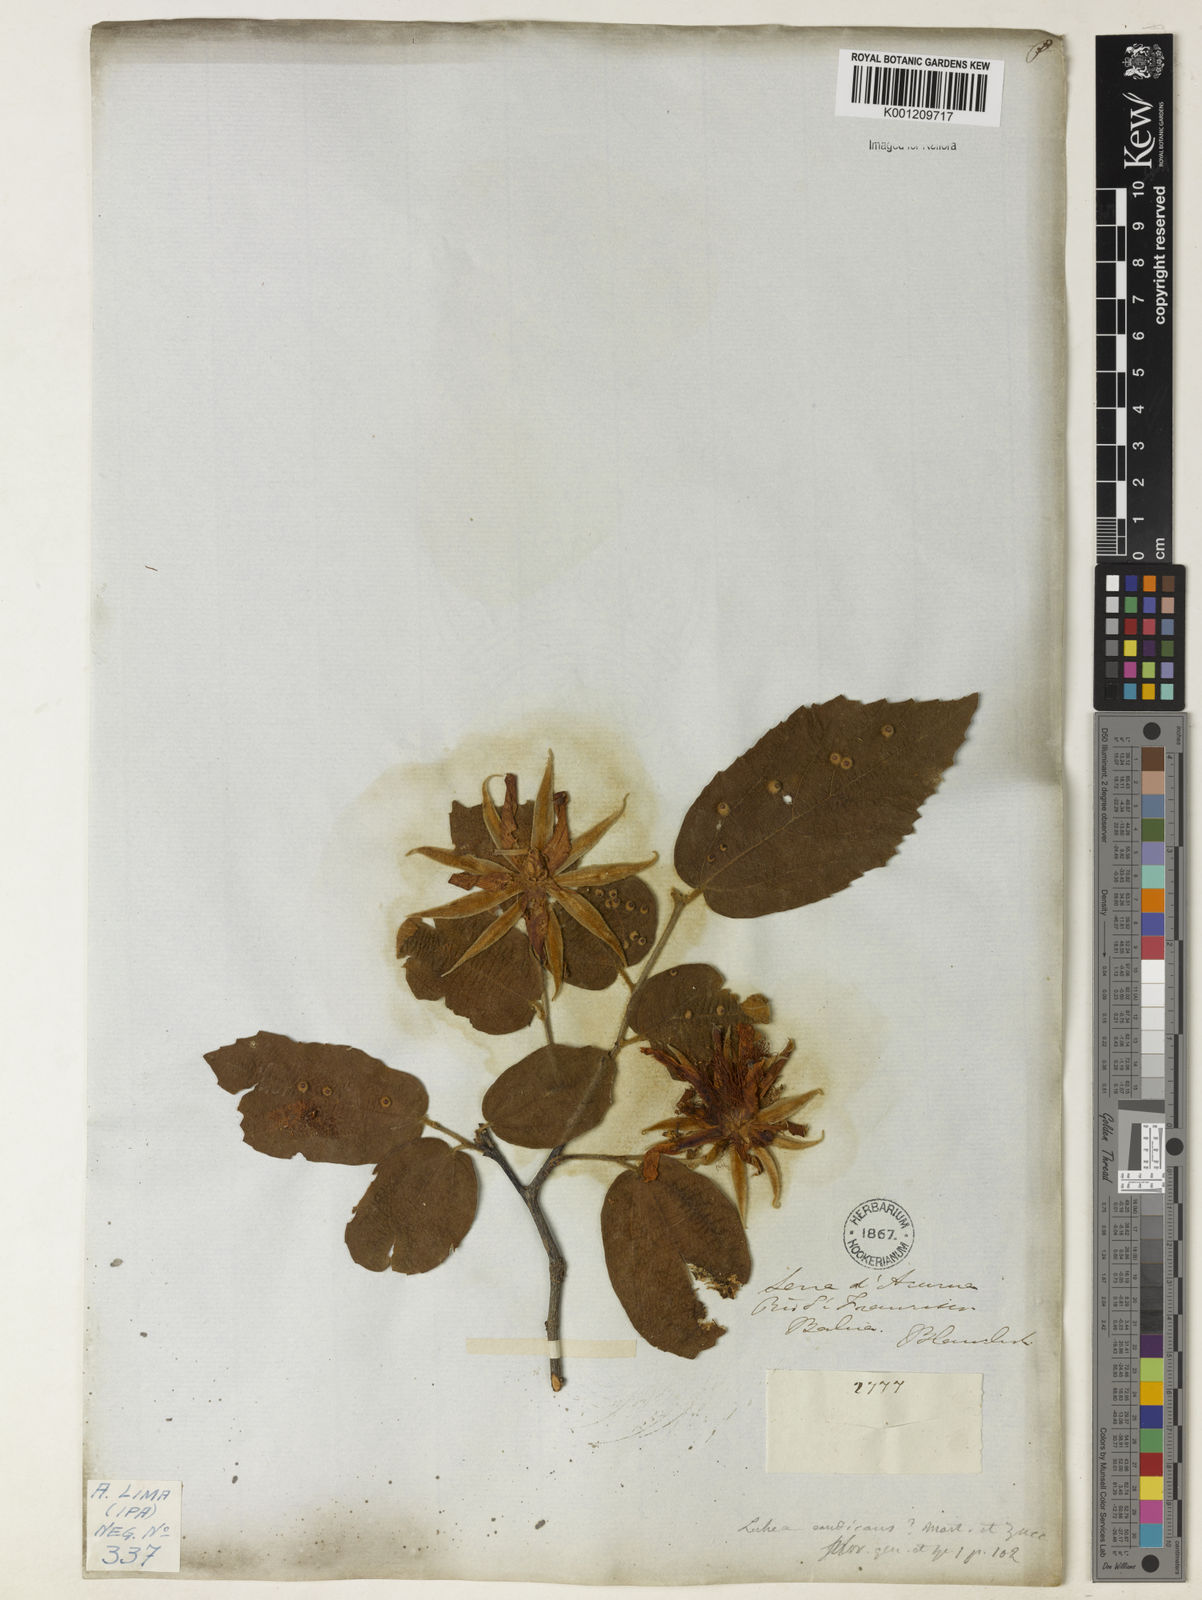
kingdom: Plantae
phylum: Tracheophyta
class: Magnoliopsida
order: Malvales
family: Malvaceae
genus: Luehea
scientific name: Luehea candicans
